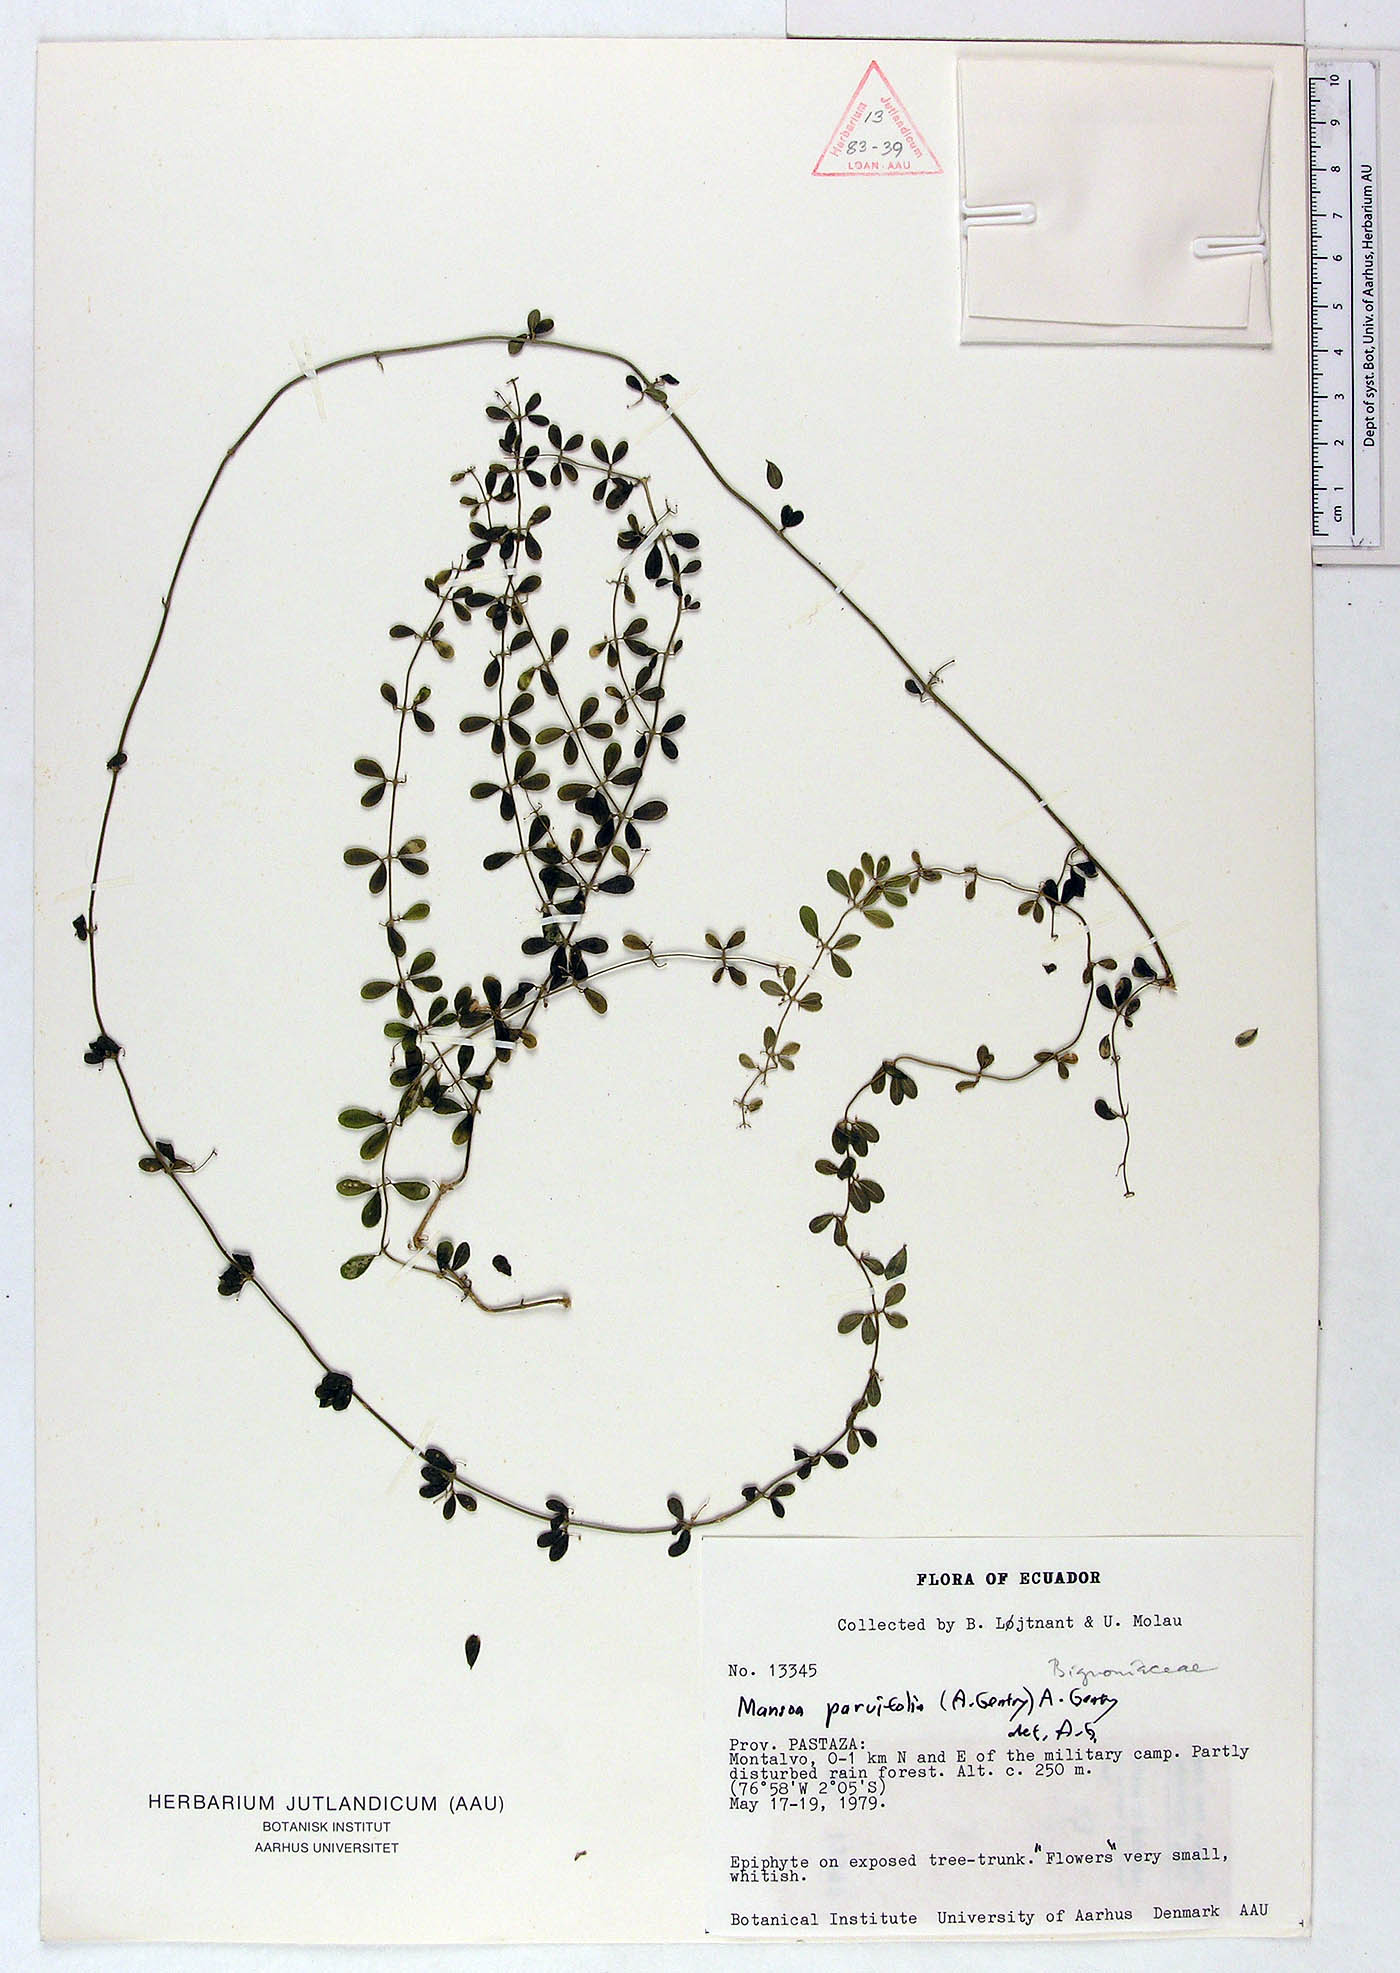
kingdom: Plantae
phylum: Tracheophyta
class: Magnoliopsida
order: Lamiales
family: Bignoniaceae
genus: Mansoa
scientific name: Mansoa parvifolia
